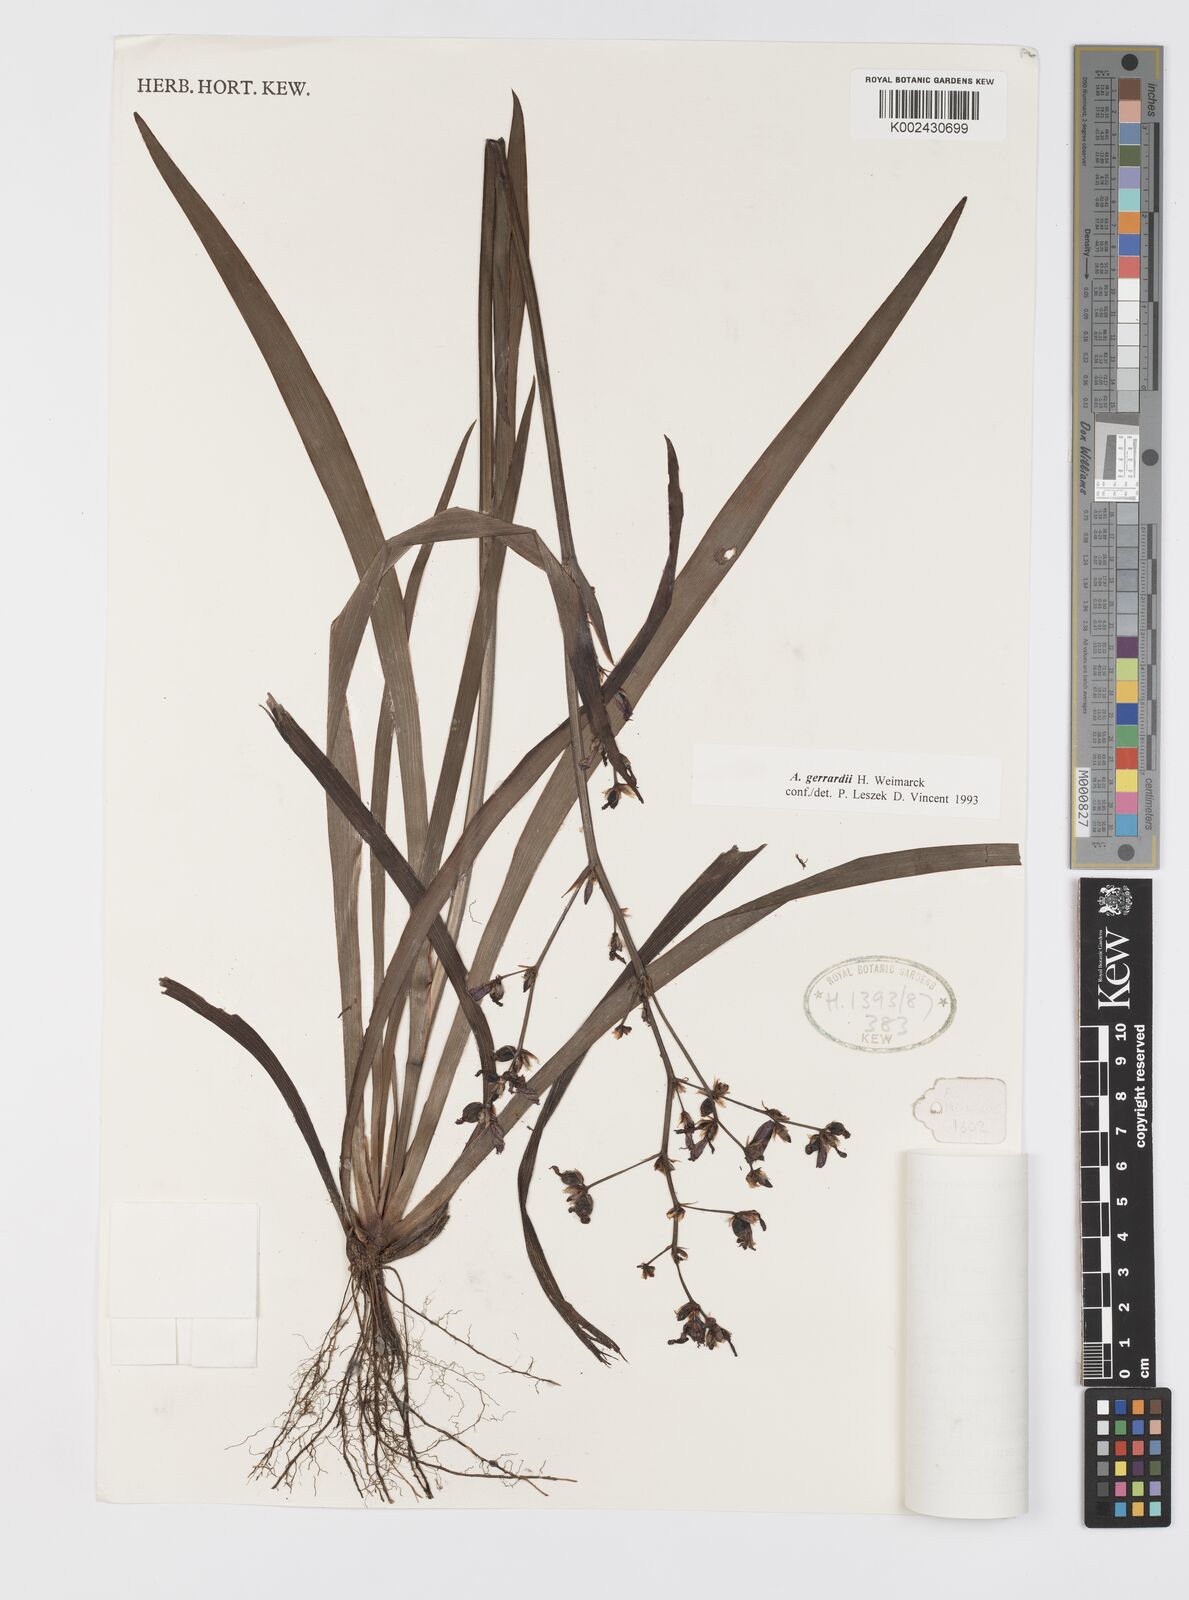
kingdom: Plantae
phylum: Tracheophyta
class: Liliopsida
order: Asparagales
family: Iridaceae
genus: Aristea
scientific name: Aristea compressa
